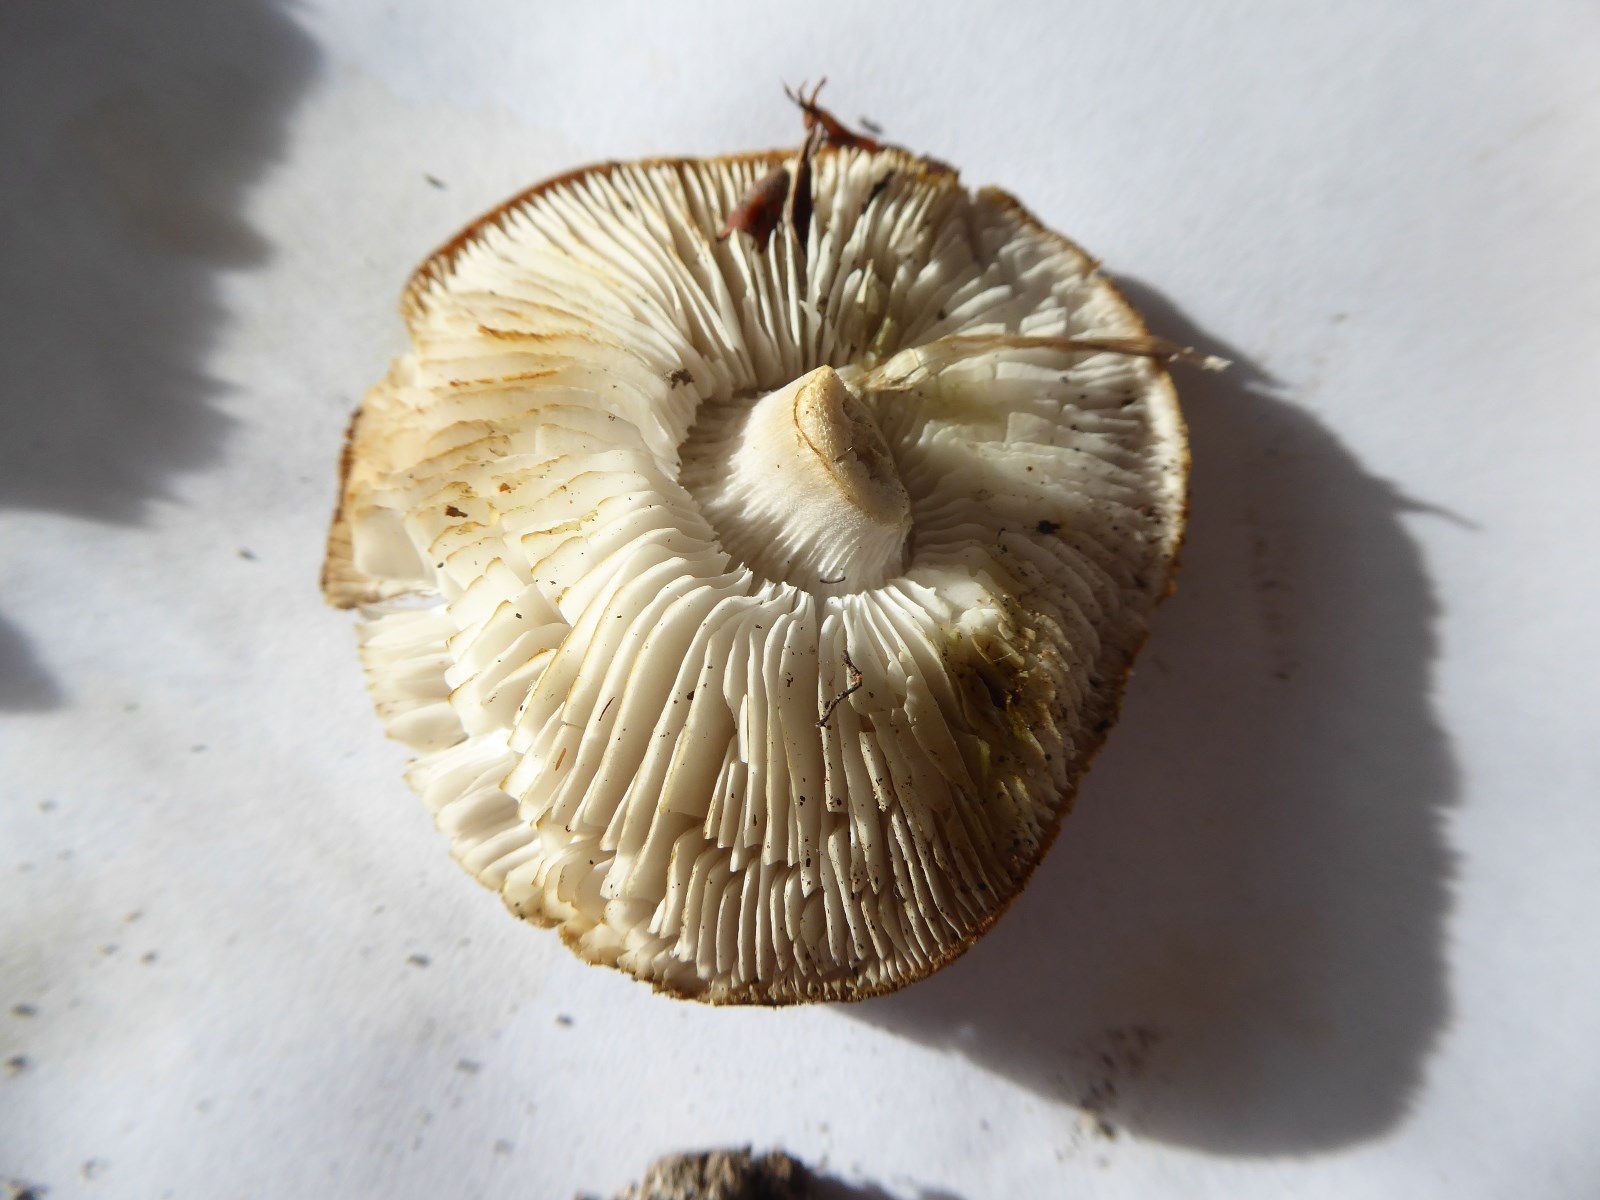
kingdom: Fungi
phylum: Basidiomycota
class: Agaricomycetes
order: Agaricales
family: Tricholomataceae
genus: Tricholoma
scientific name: Tricholoma scalpturatum
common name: gulplettet ridderhat
